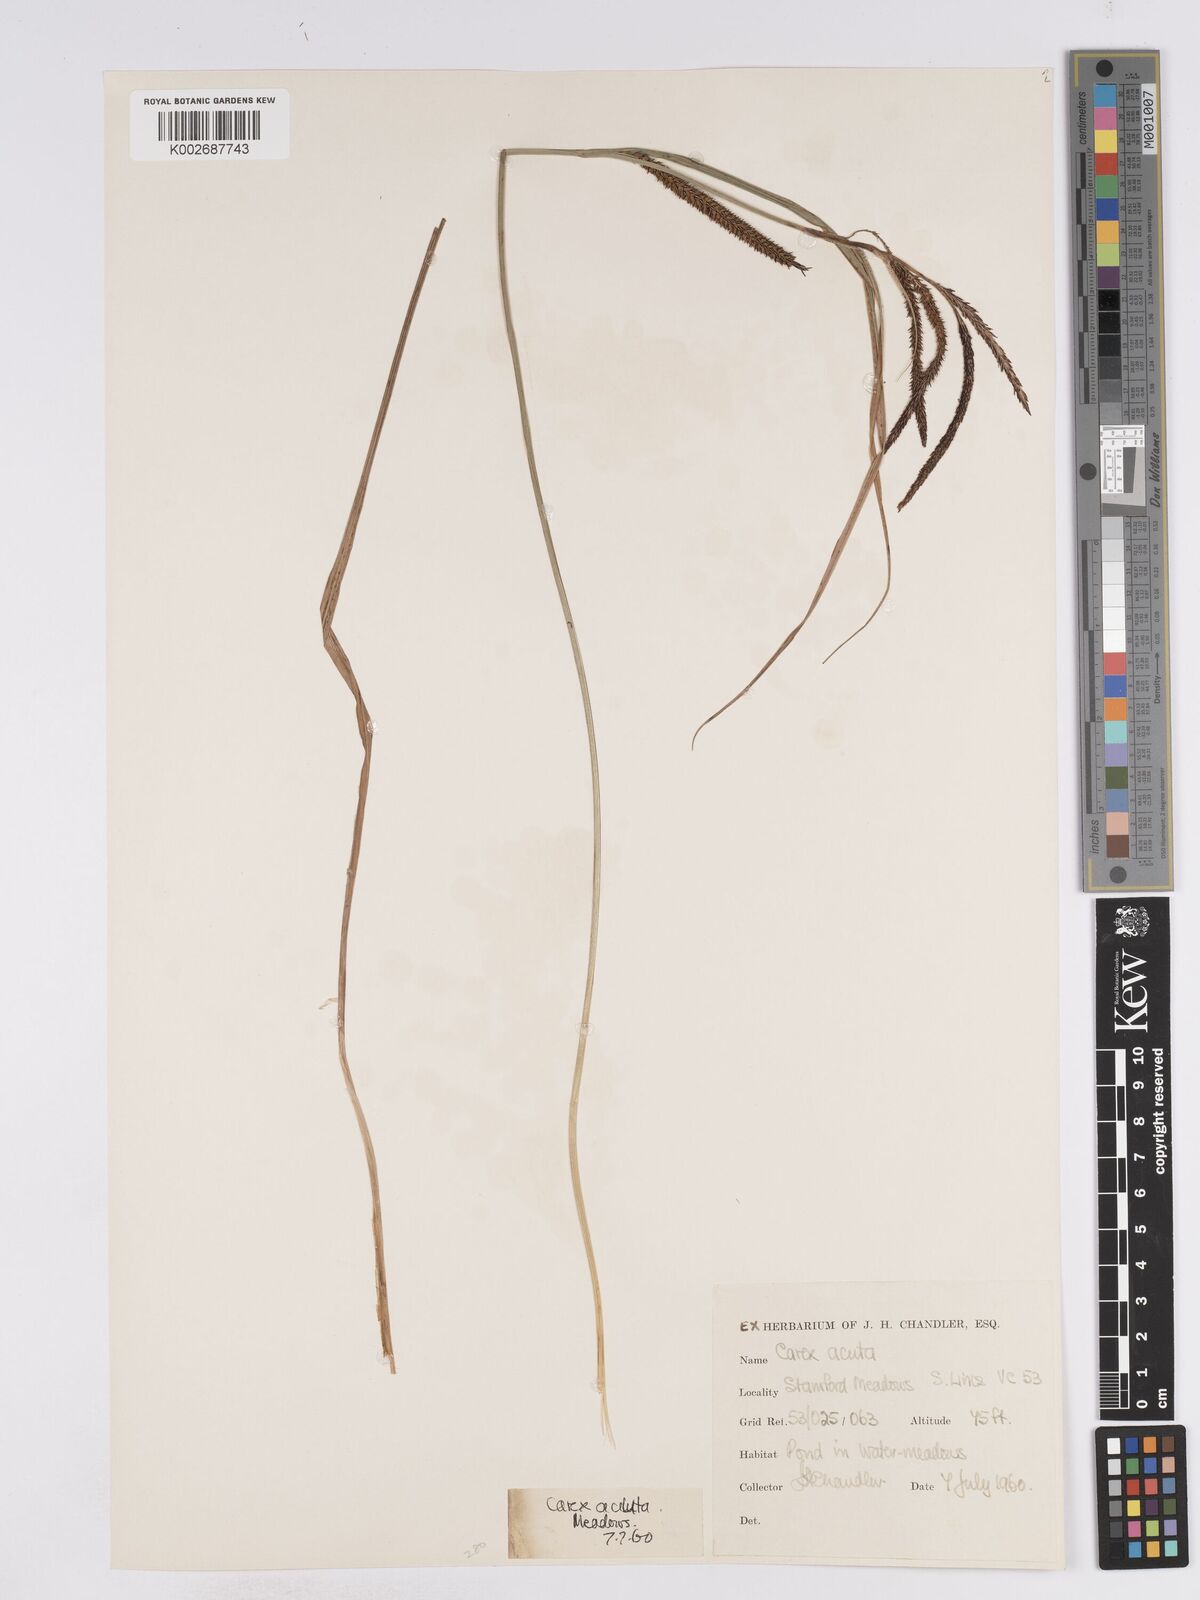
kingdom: Plantae
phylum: Tracheophyta
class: Liliopsida
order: Poales
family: Cyperaceae
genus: Carex
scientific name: Carex acuta
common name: Slender tufted-sedge
